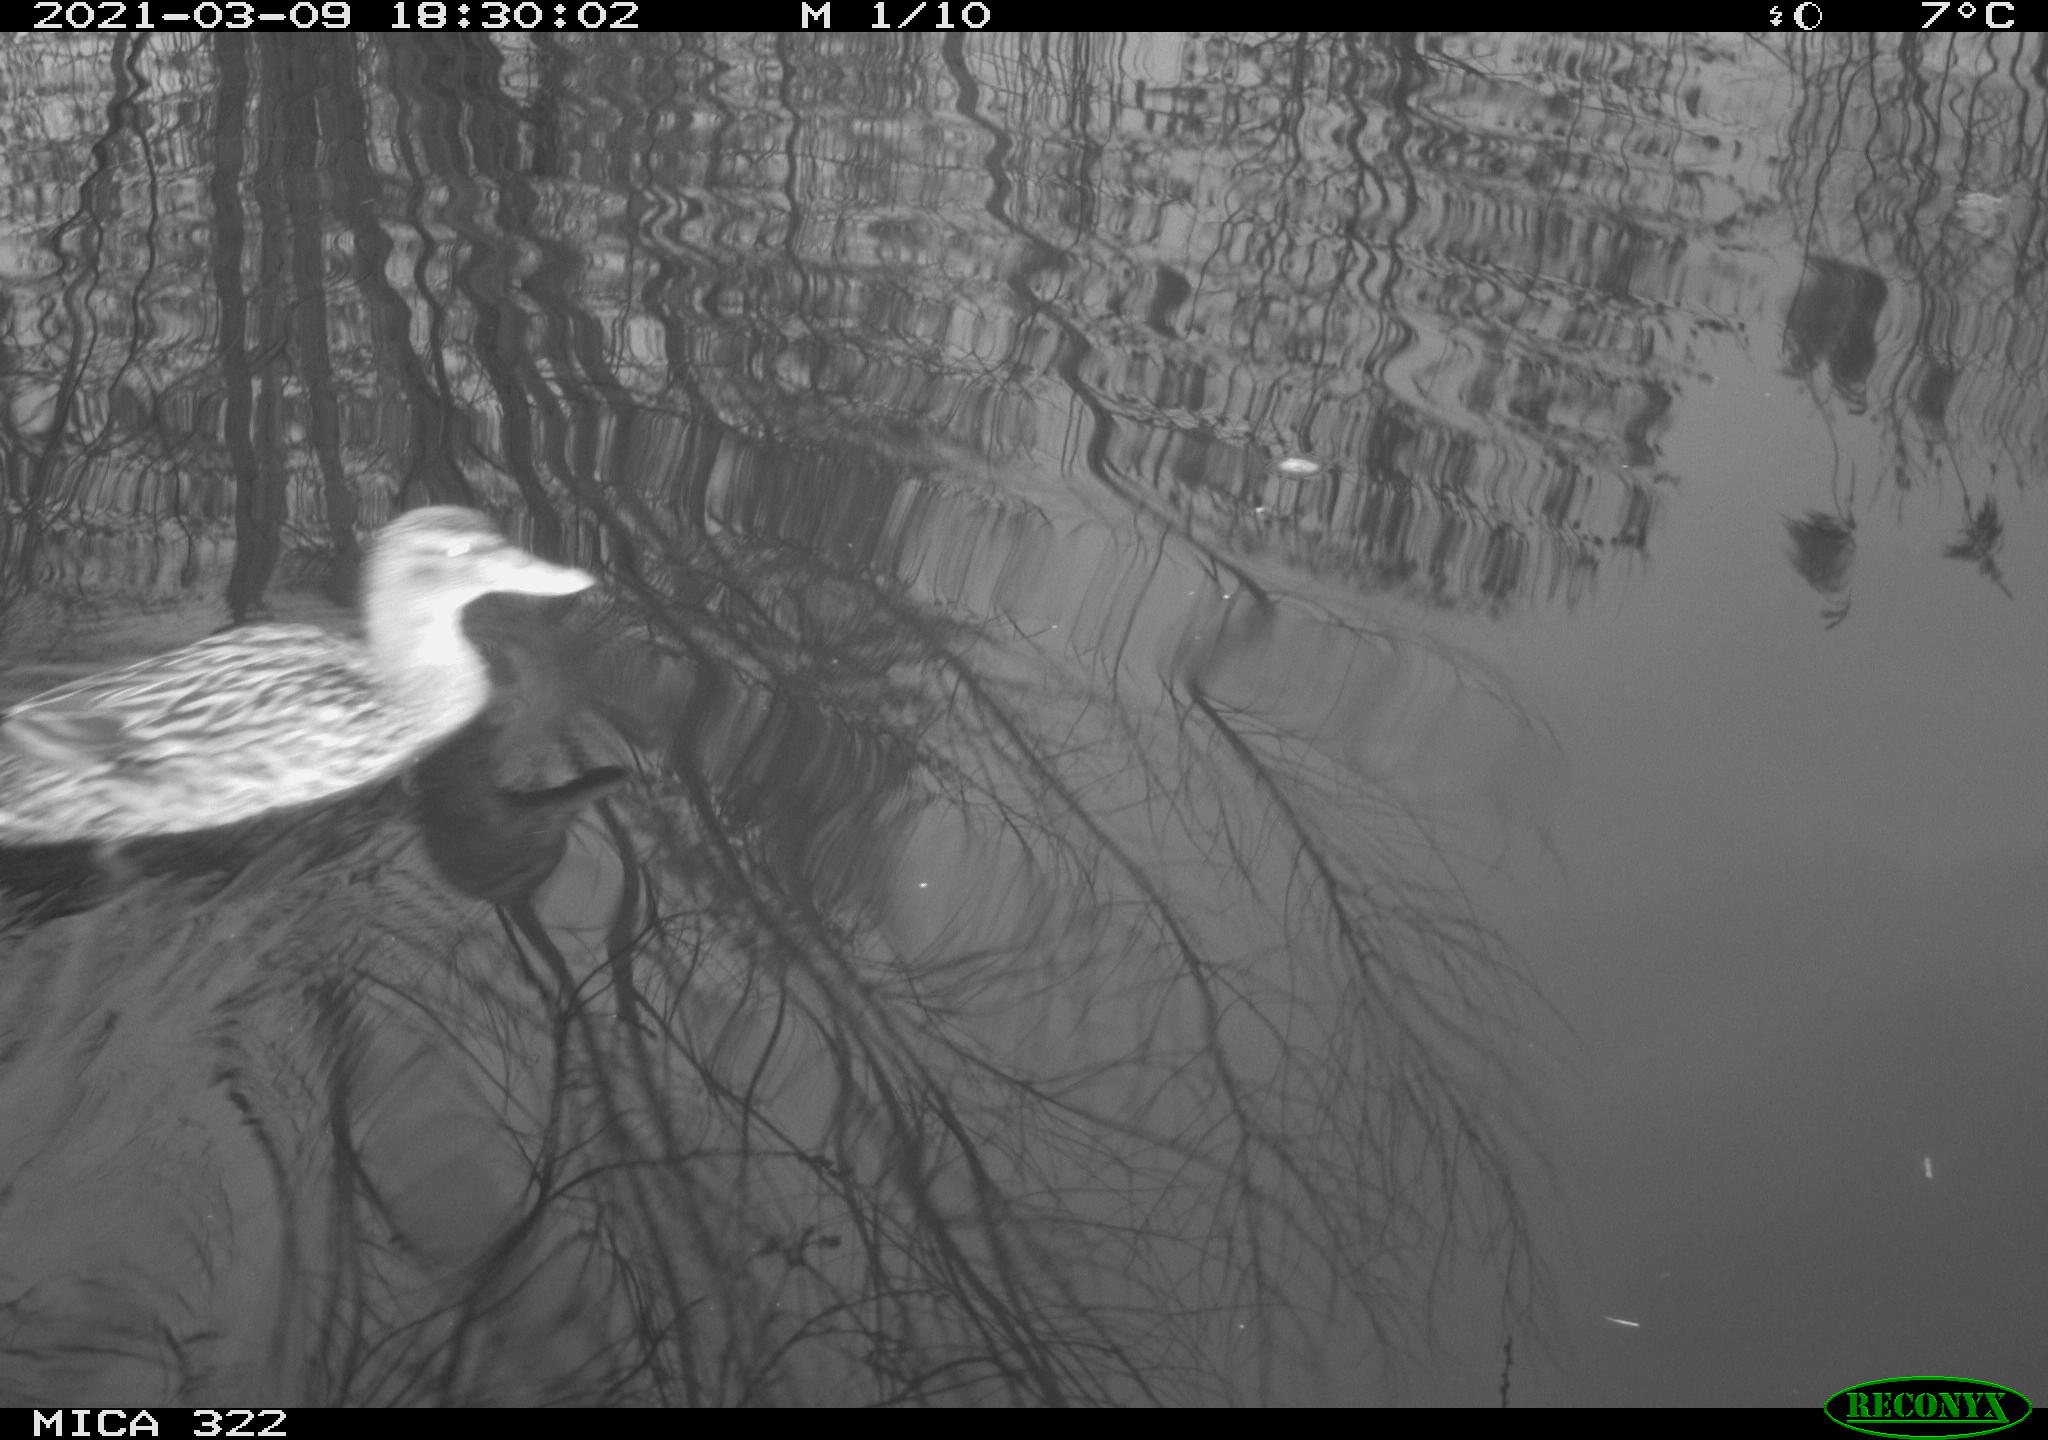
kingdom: Animalia
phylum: Chordata
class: Aves
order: Anseriformes
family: Anatidae
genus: Mareca
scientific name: Mareca strepera
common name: Gadwall
